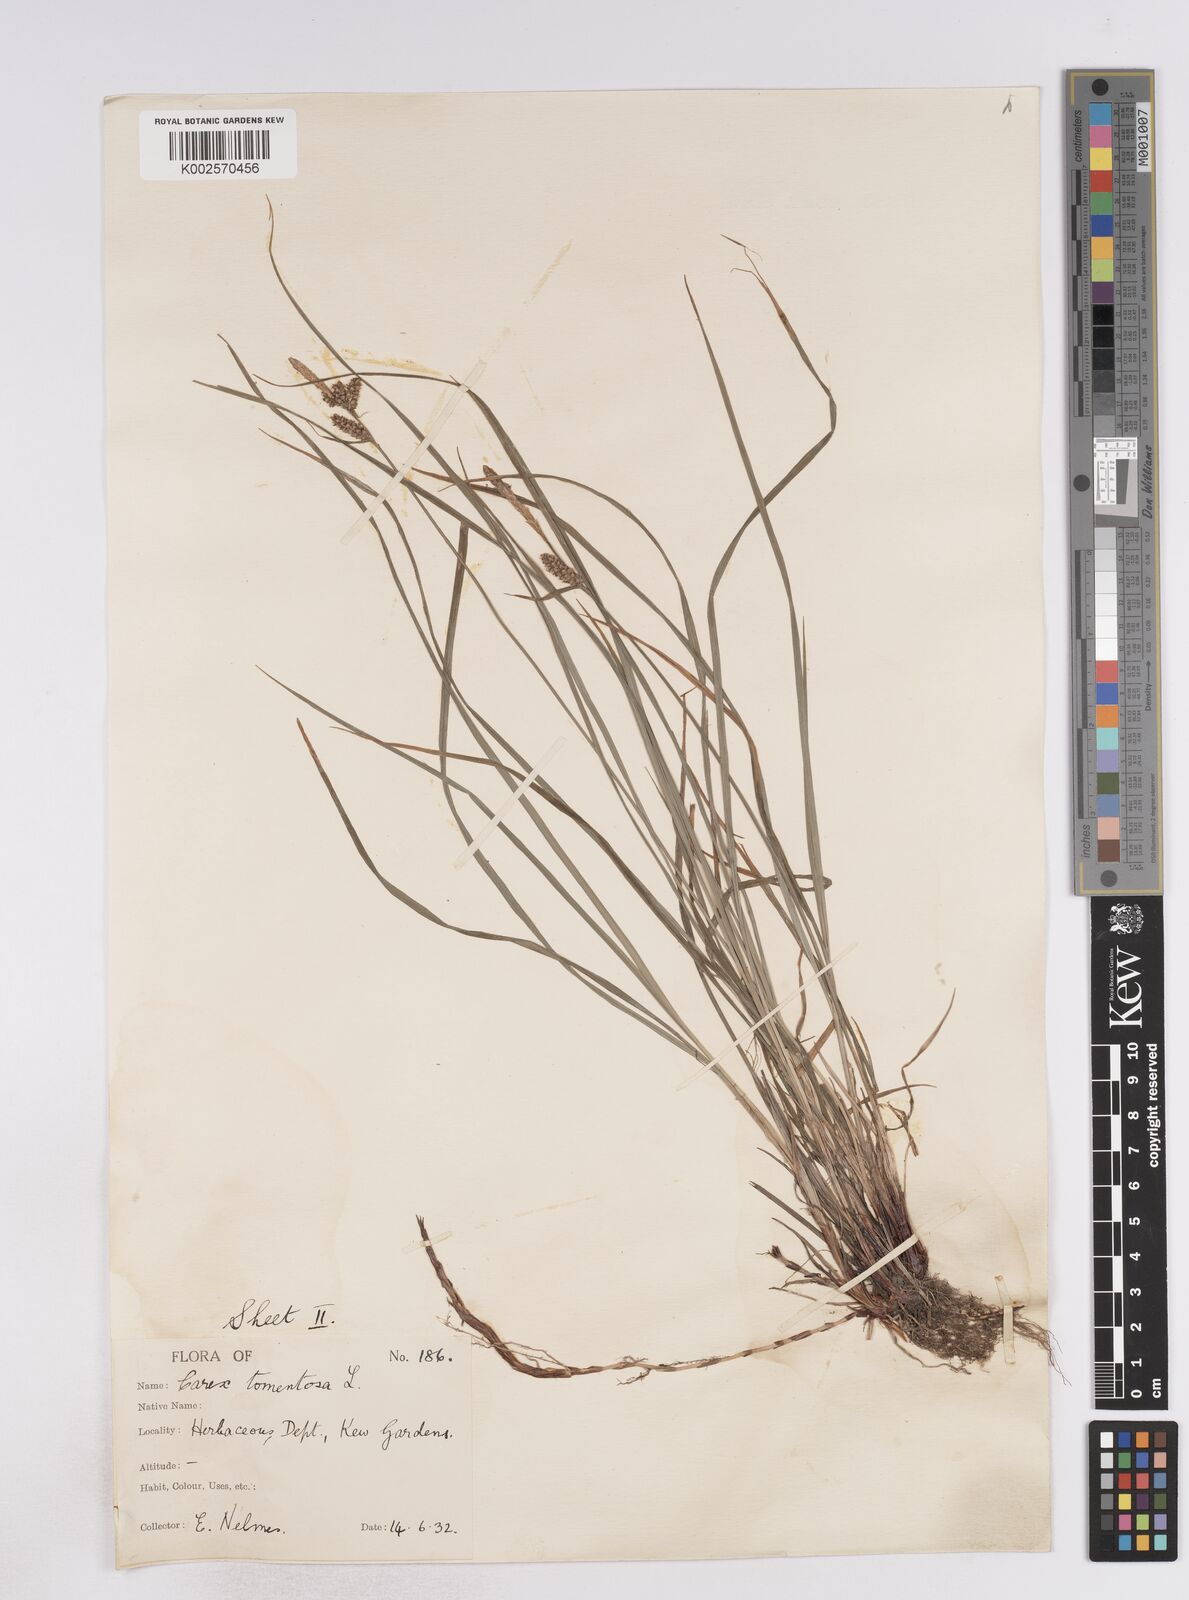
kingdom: Plantae
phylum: Tracheophyta
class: Liliopsida
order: Poales
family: Cyperaceae
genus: Carex
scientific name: Carex montana
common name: Soft-leaved sedge
